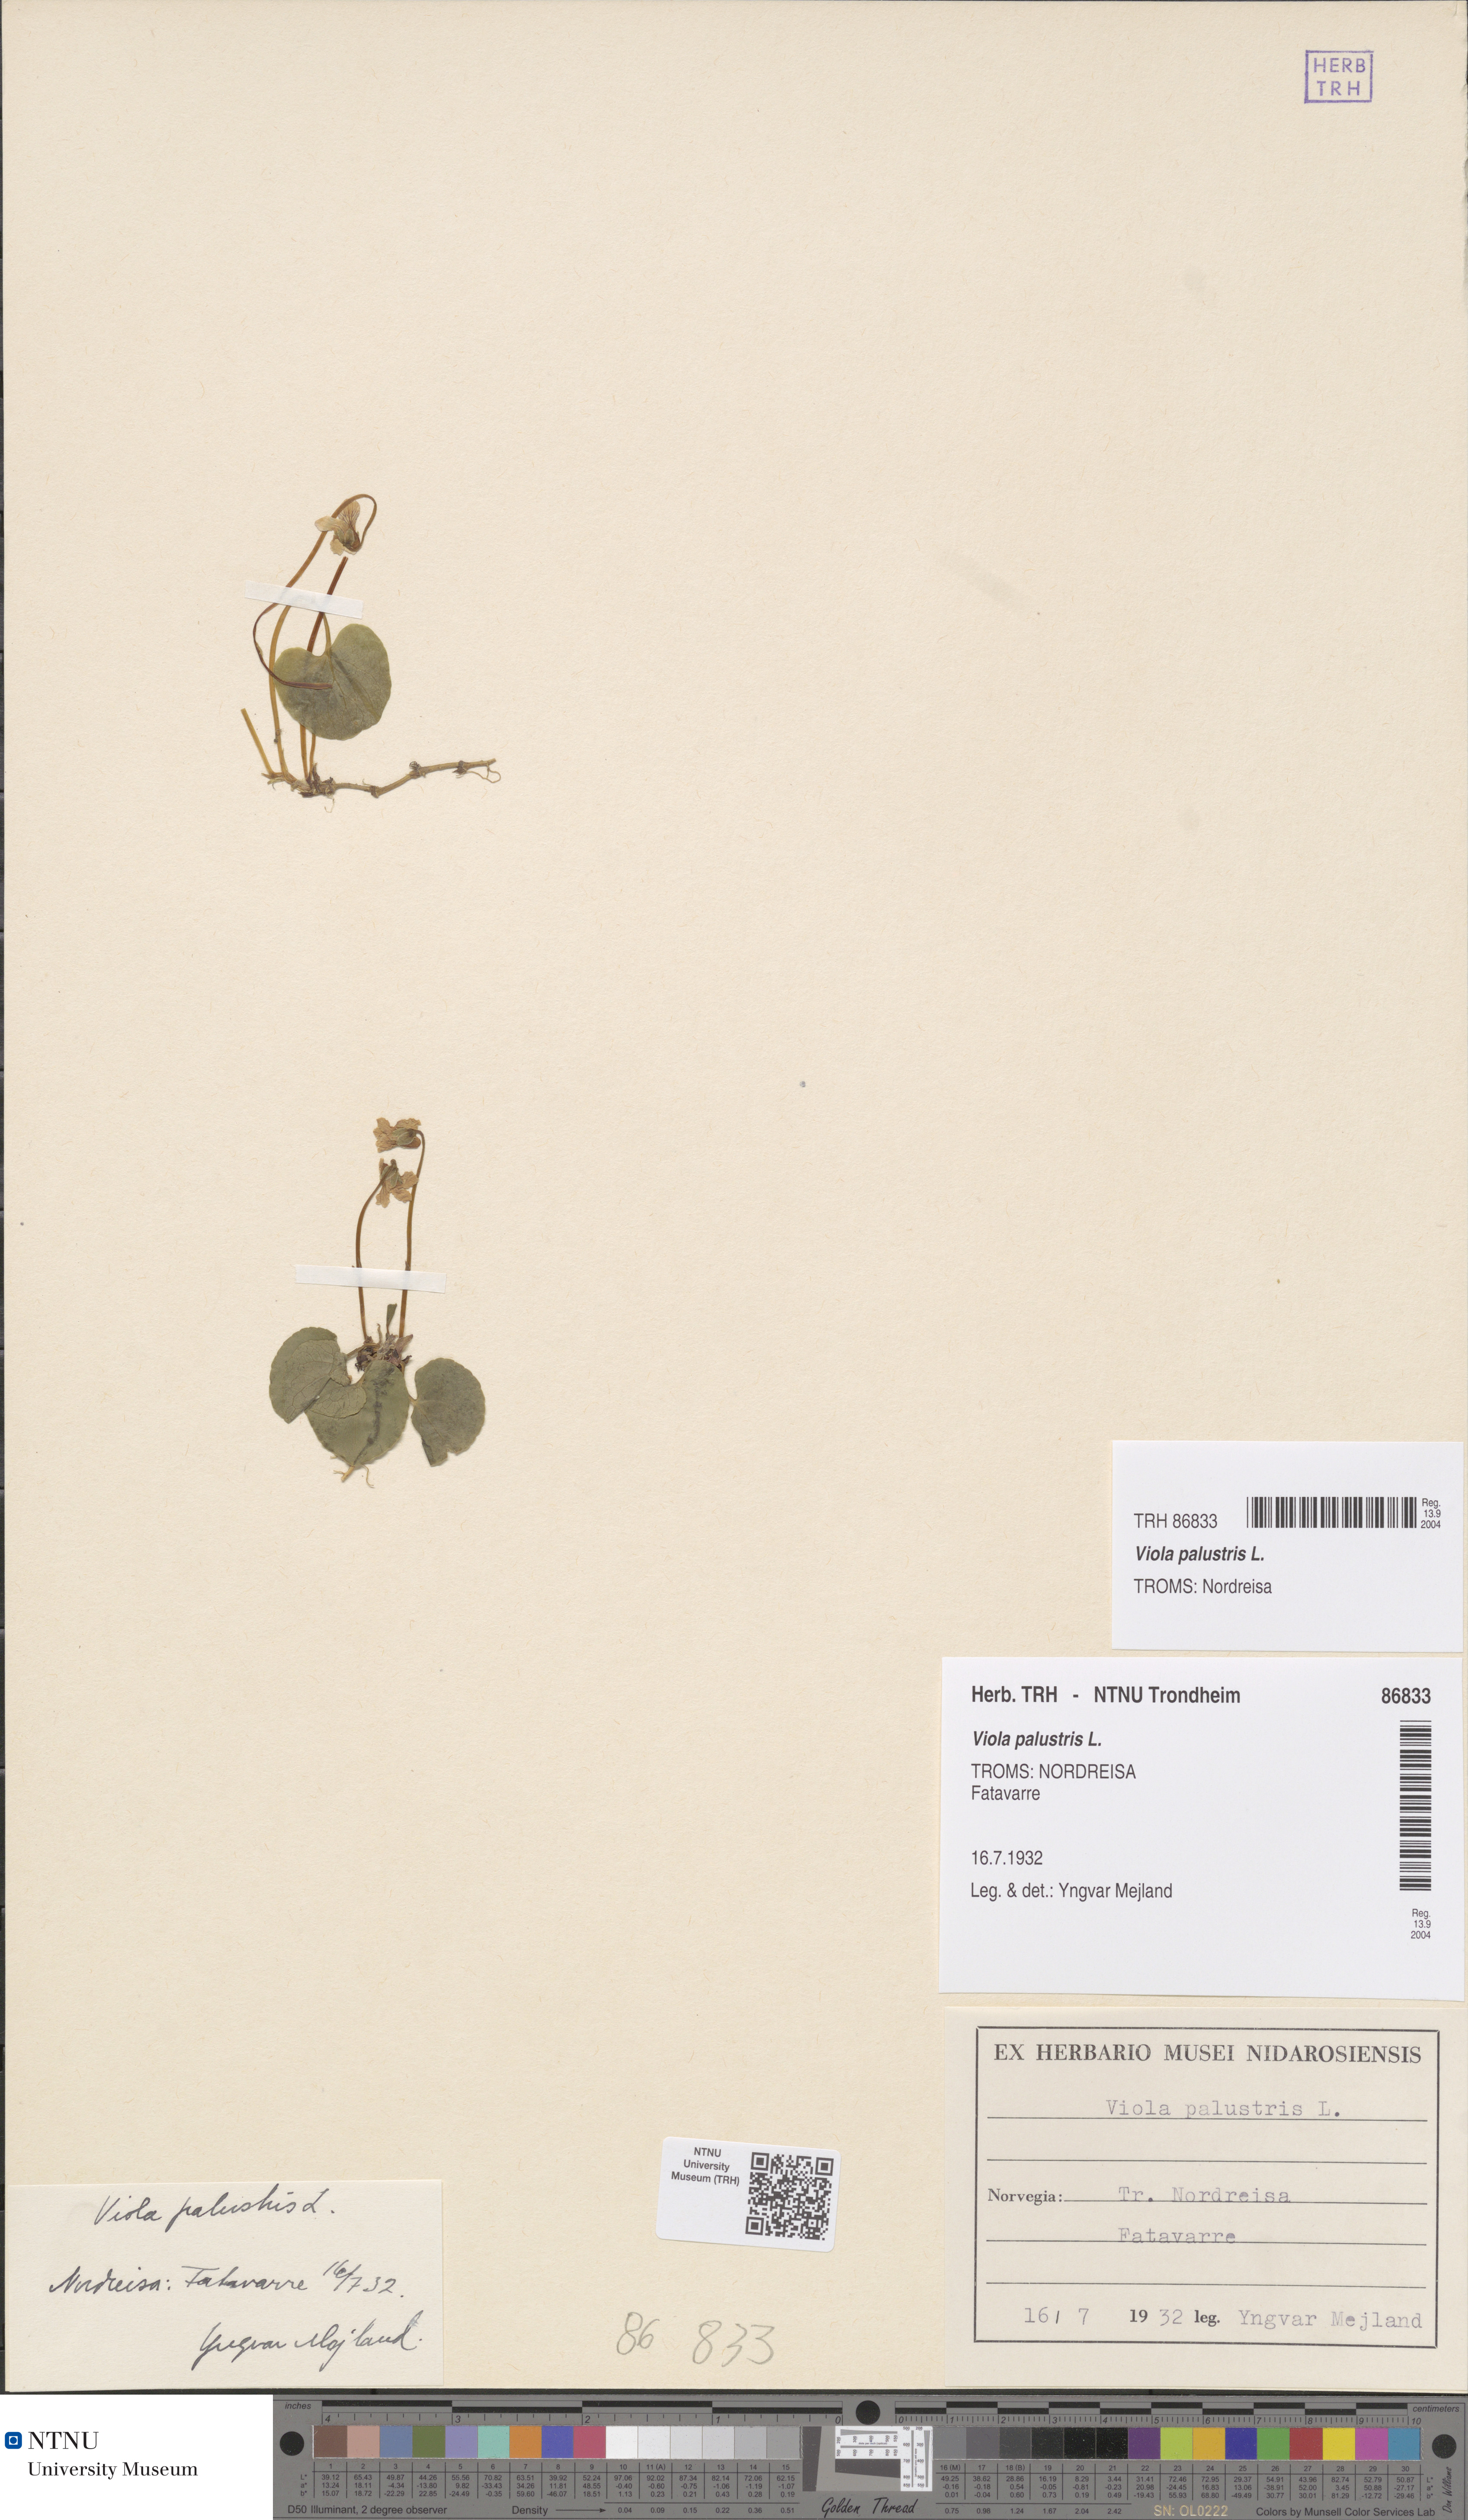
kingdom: Plantae
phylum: Tracheophyta
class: Magnoliopsida
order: Malpighiales
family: Violaceae
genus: Viola
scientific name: Viola palustris
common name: Marsh violet
